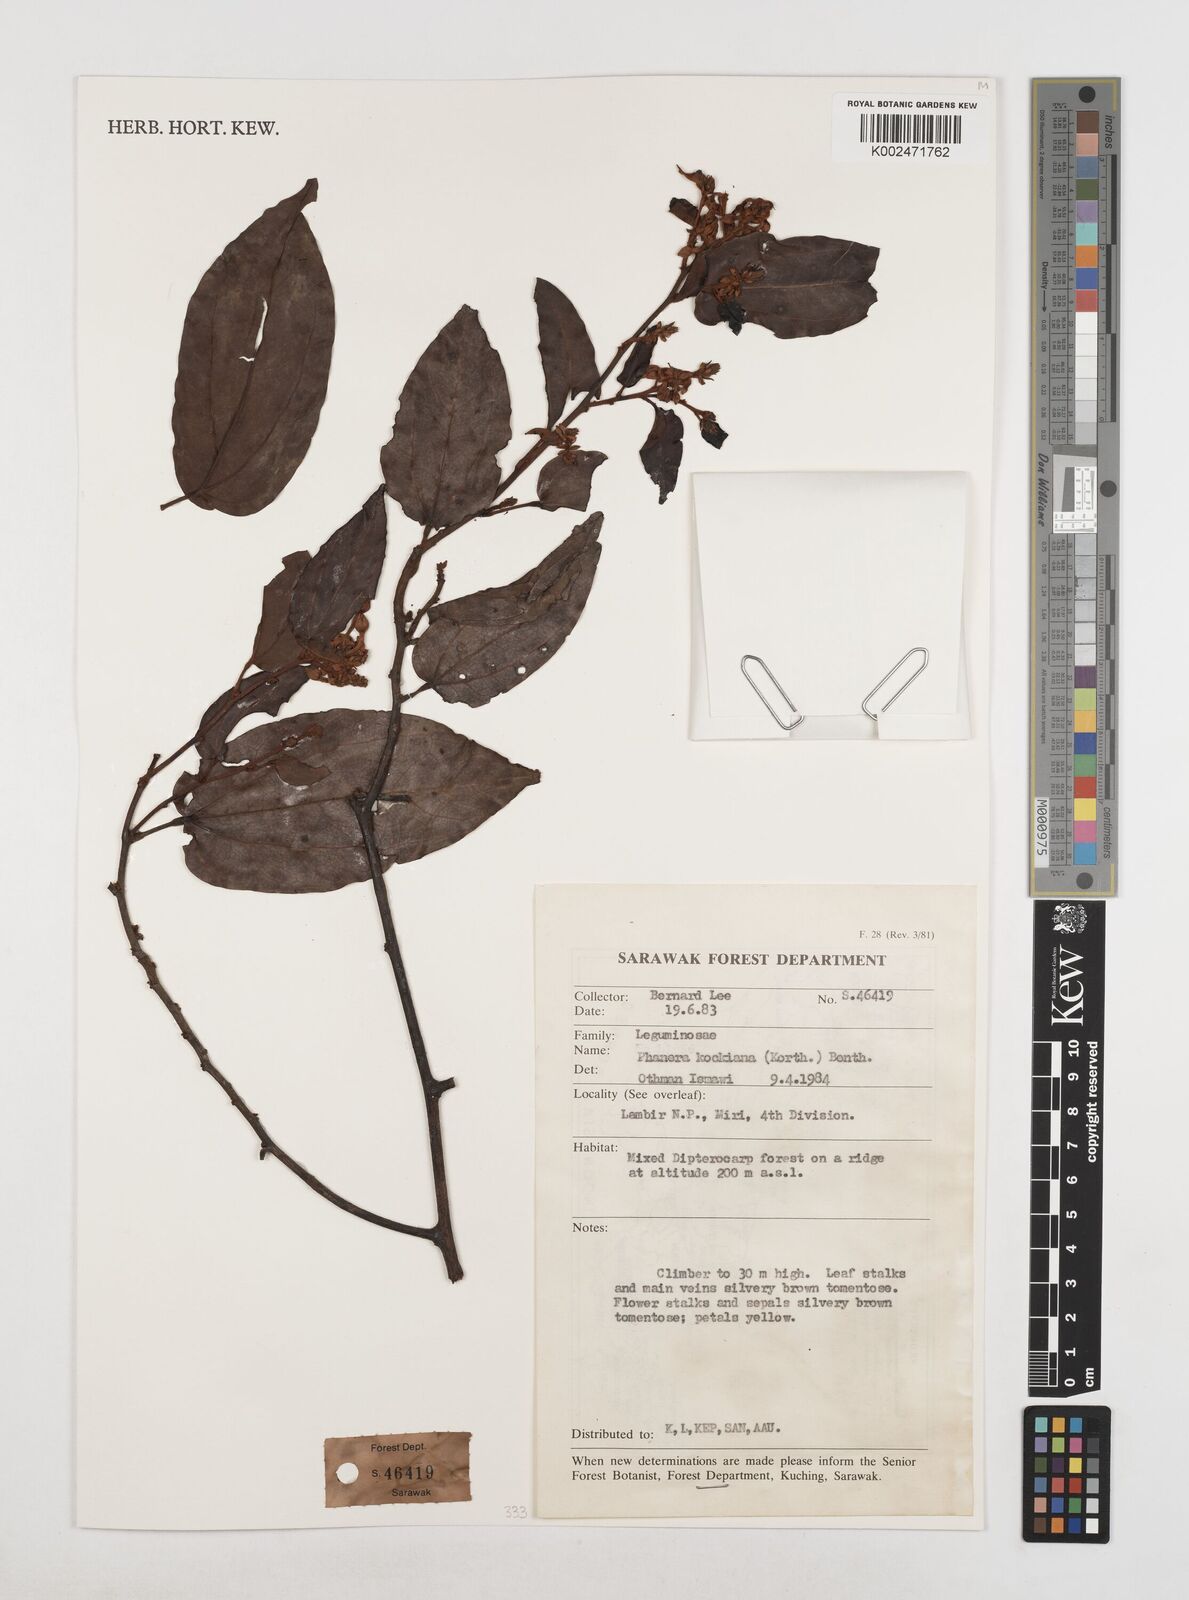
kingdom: Plantae
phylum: Tracheophyta
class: Magnoliopsida
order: Fabales
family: Fabaceae
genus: Phanera
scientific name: Phanera kockiana
